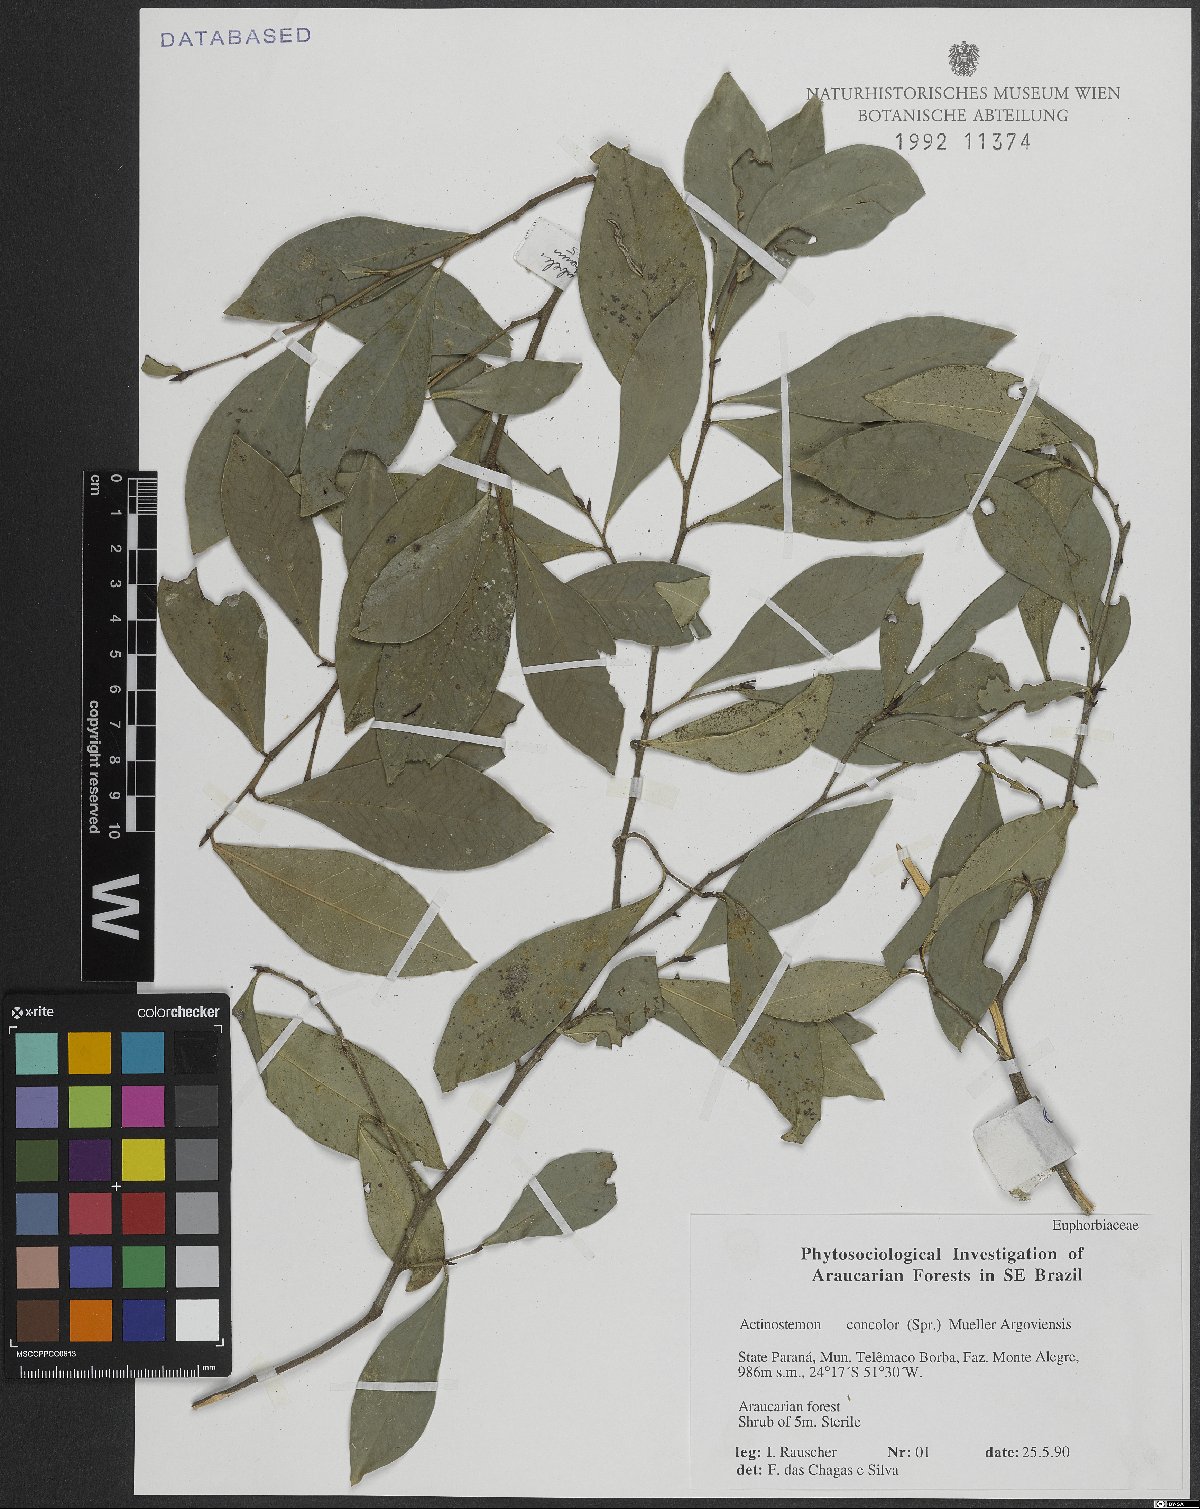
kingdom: Plantae
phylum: Tracheophyta
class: Magnoliopsida
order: Malpighiales
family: Euphorbiaceae
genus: Actinostemon
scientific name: Actinostemon concolor
